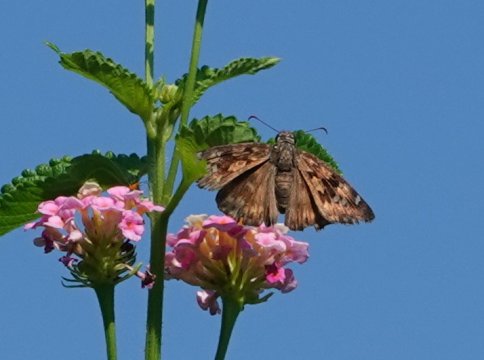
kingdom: Animalia
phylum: Arthropoda
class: Insecta
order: Lepidoptera
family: Hesperiidae
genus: Gesta
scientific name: Gesta
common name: Horace's Duskywing
